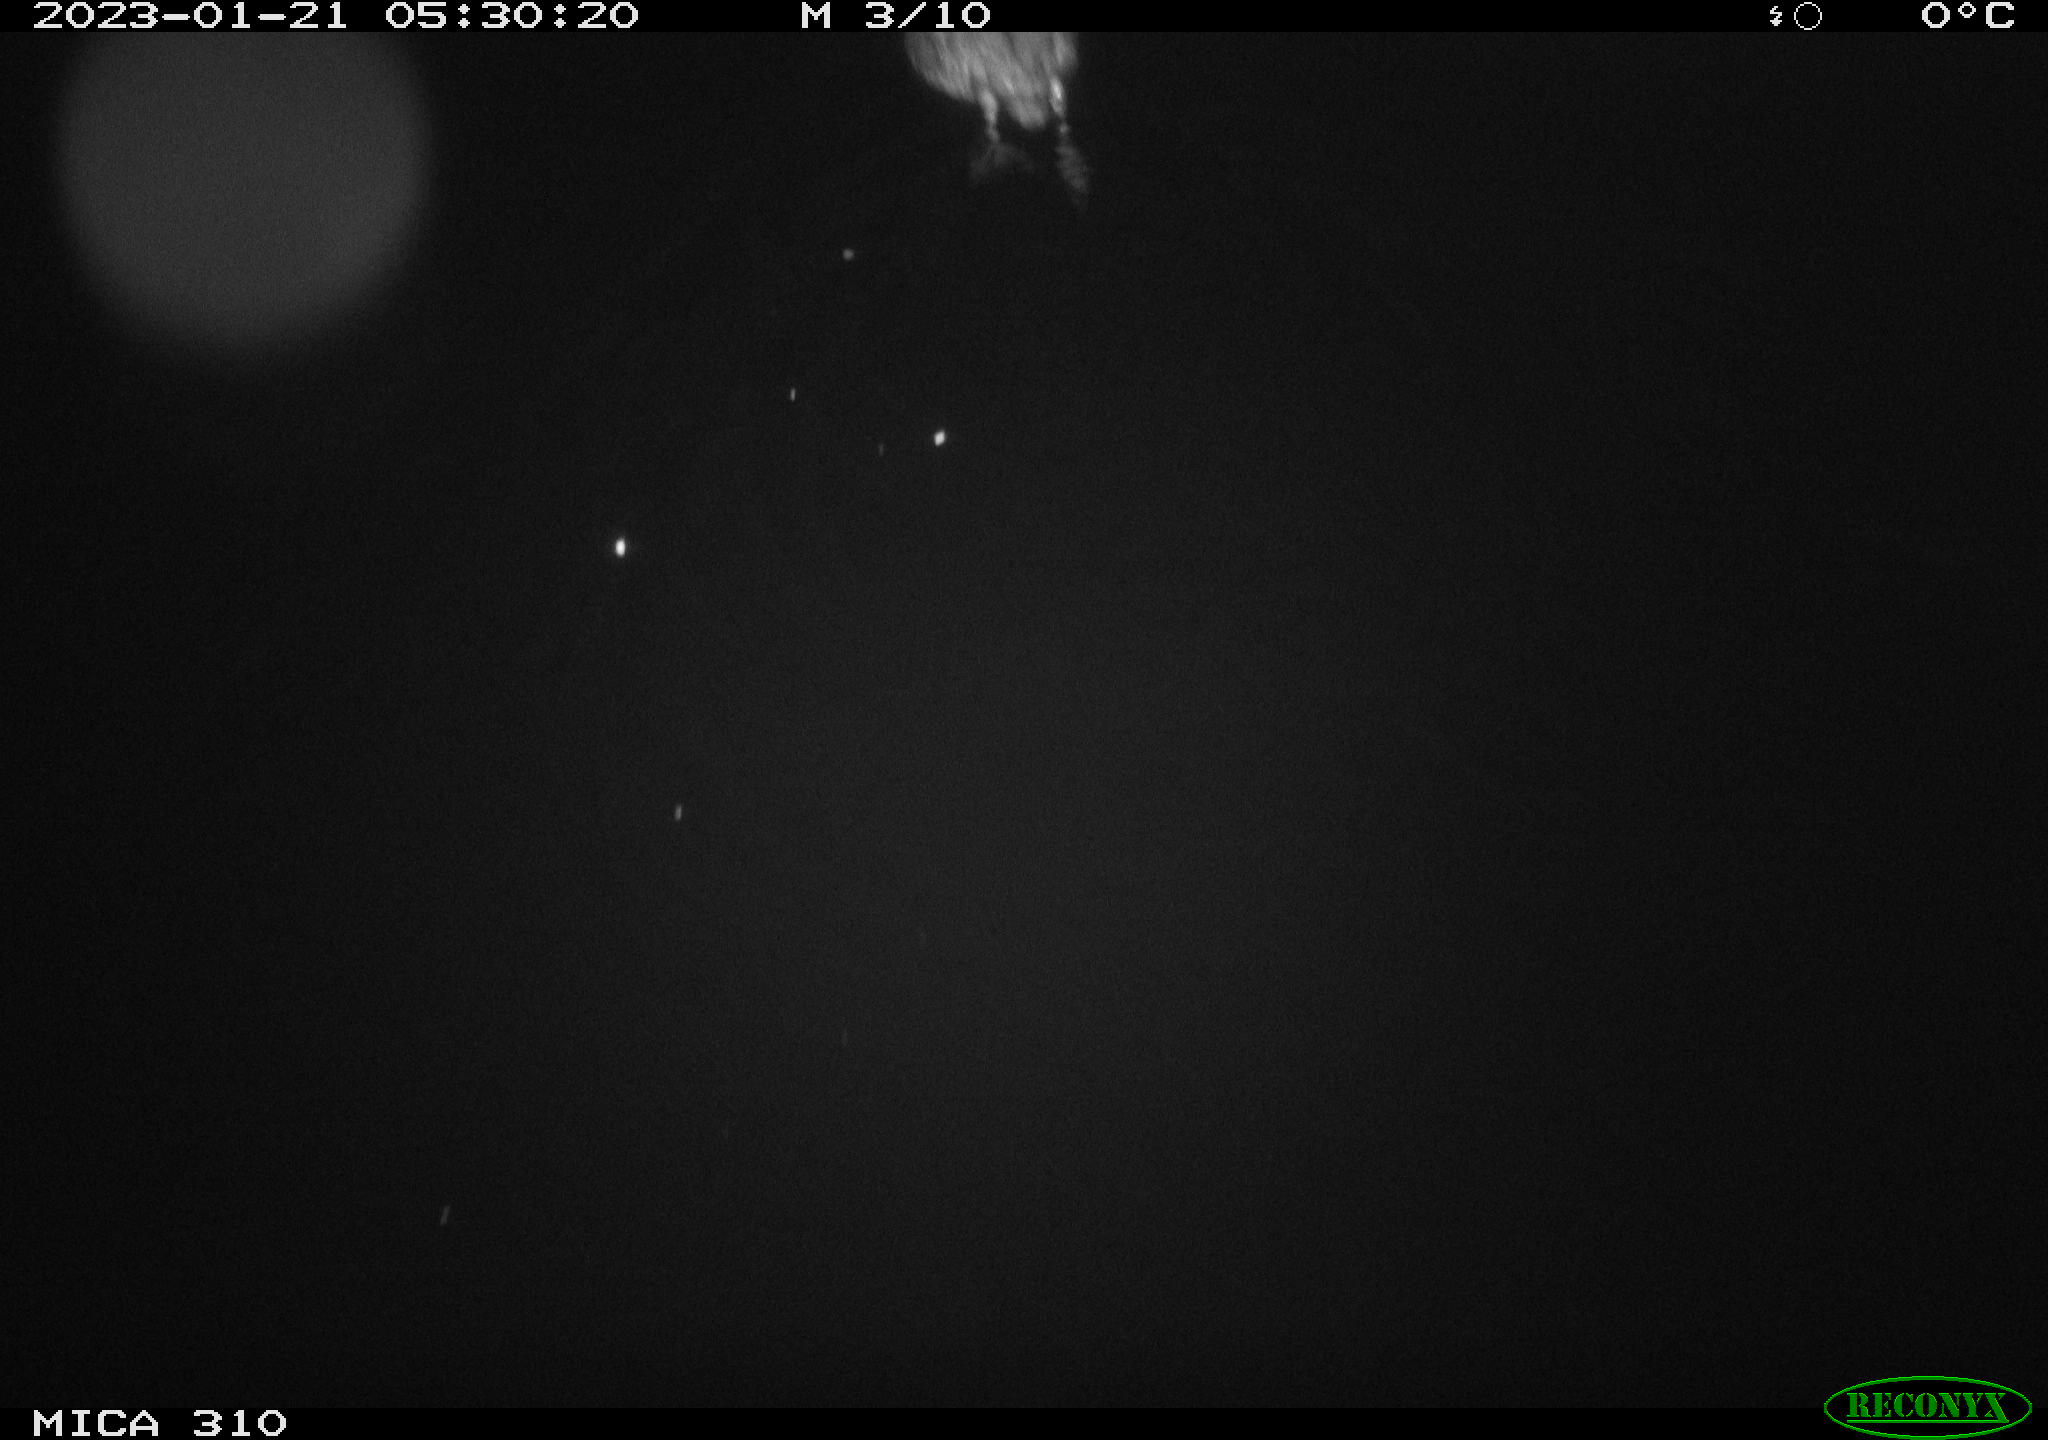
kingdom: Animalia
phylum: Chordata
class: Aves
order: Pelecaniformes
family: Ardeidae
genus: Ardea
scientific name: Ardea cinerea
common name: Grey heron
